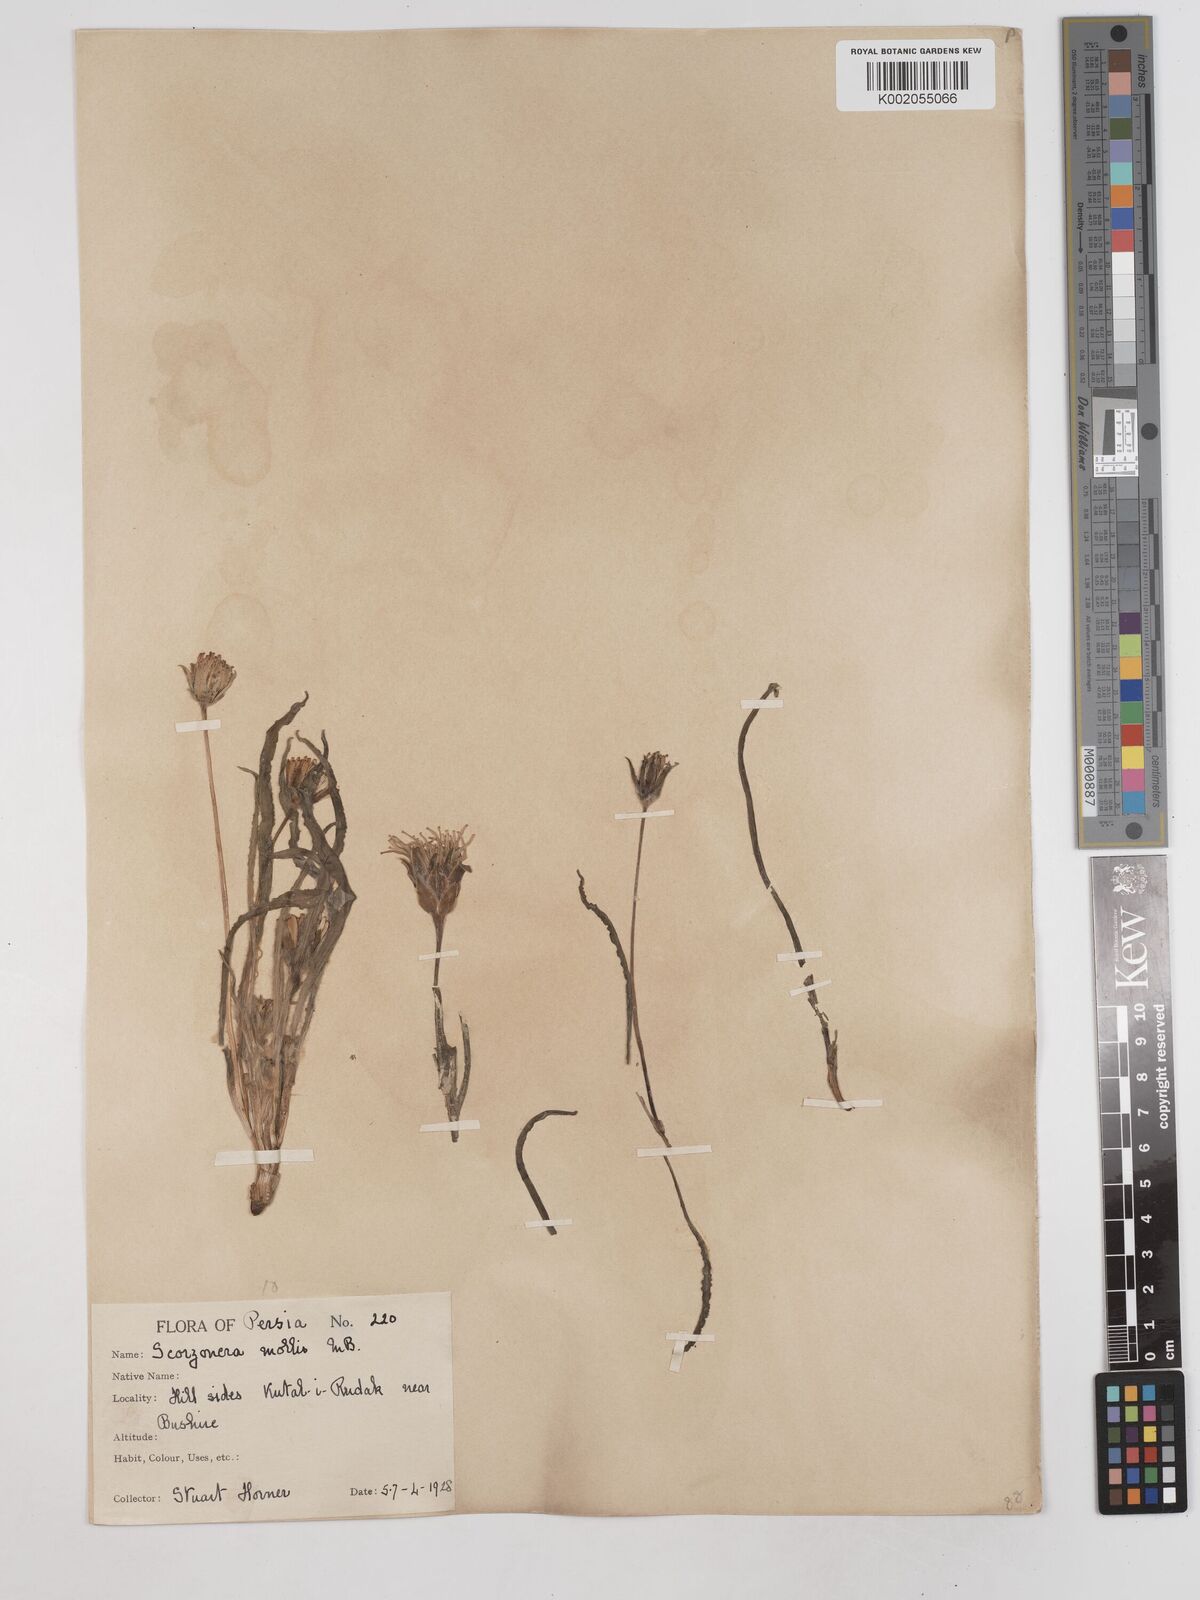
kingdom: Plantae
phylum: Tracheophyta
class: Magnoliopsida
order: Asterales
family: Asteraceae
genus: Candollea
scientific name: Candollea mollis
